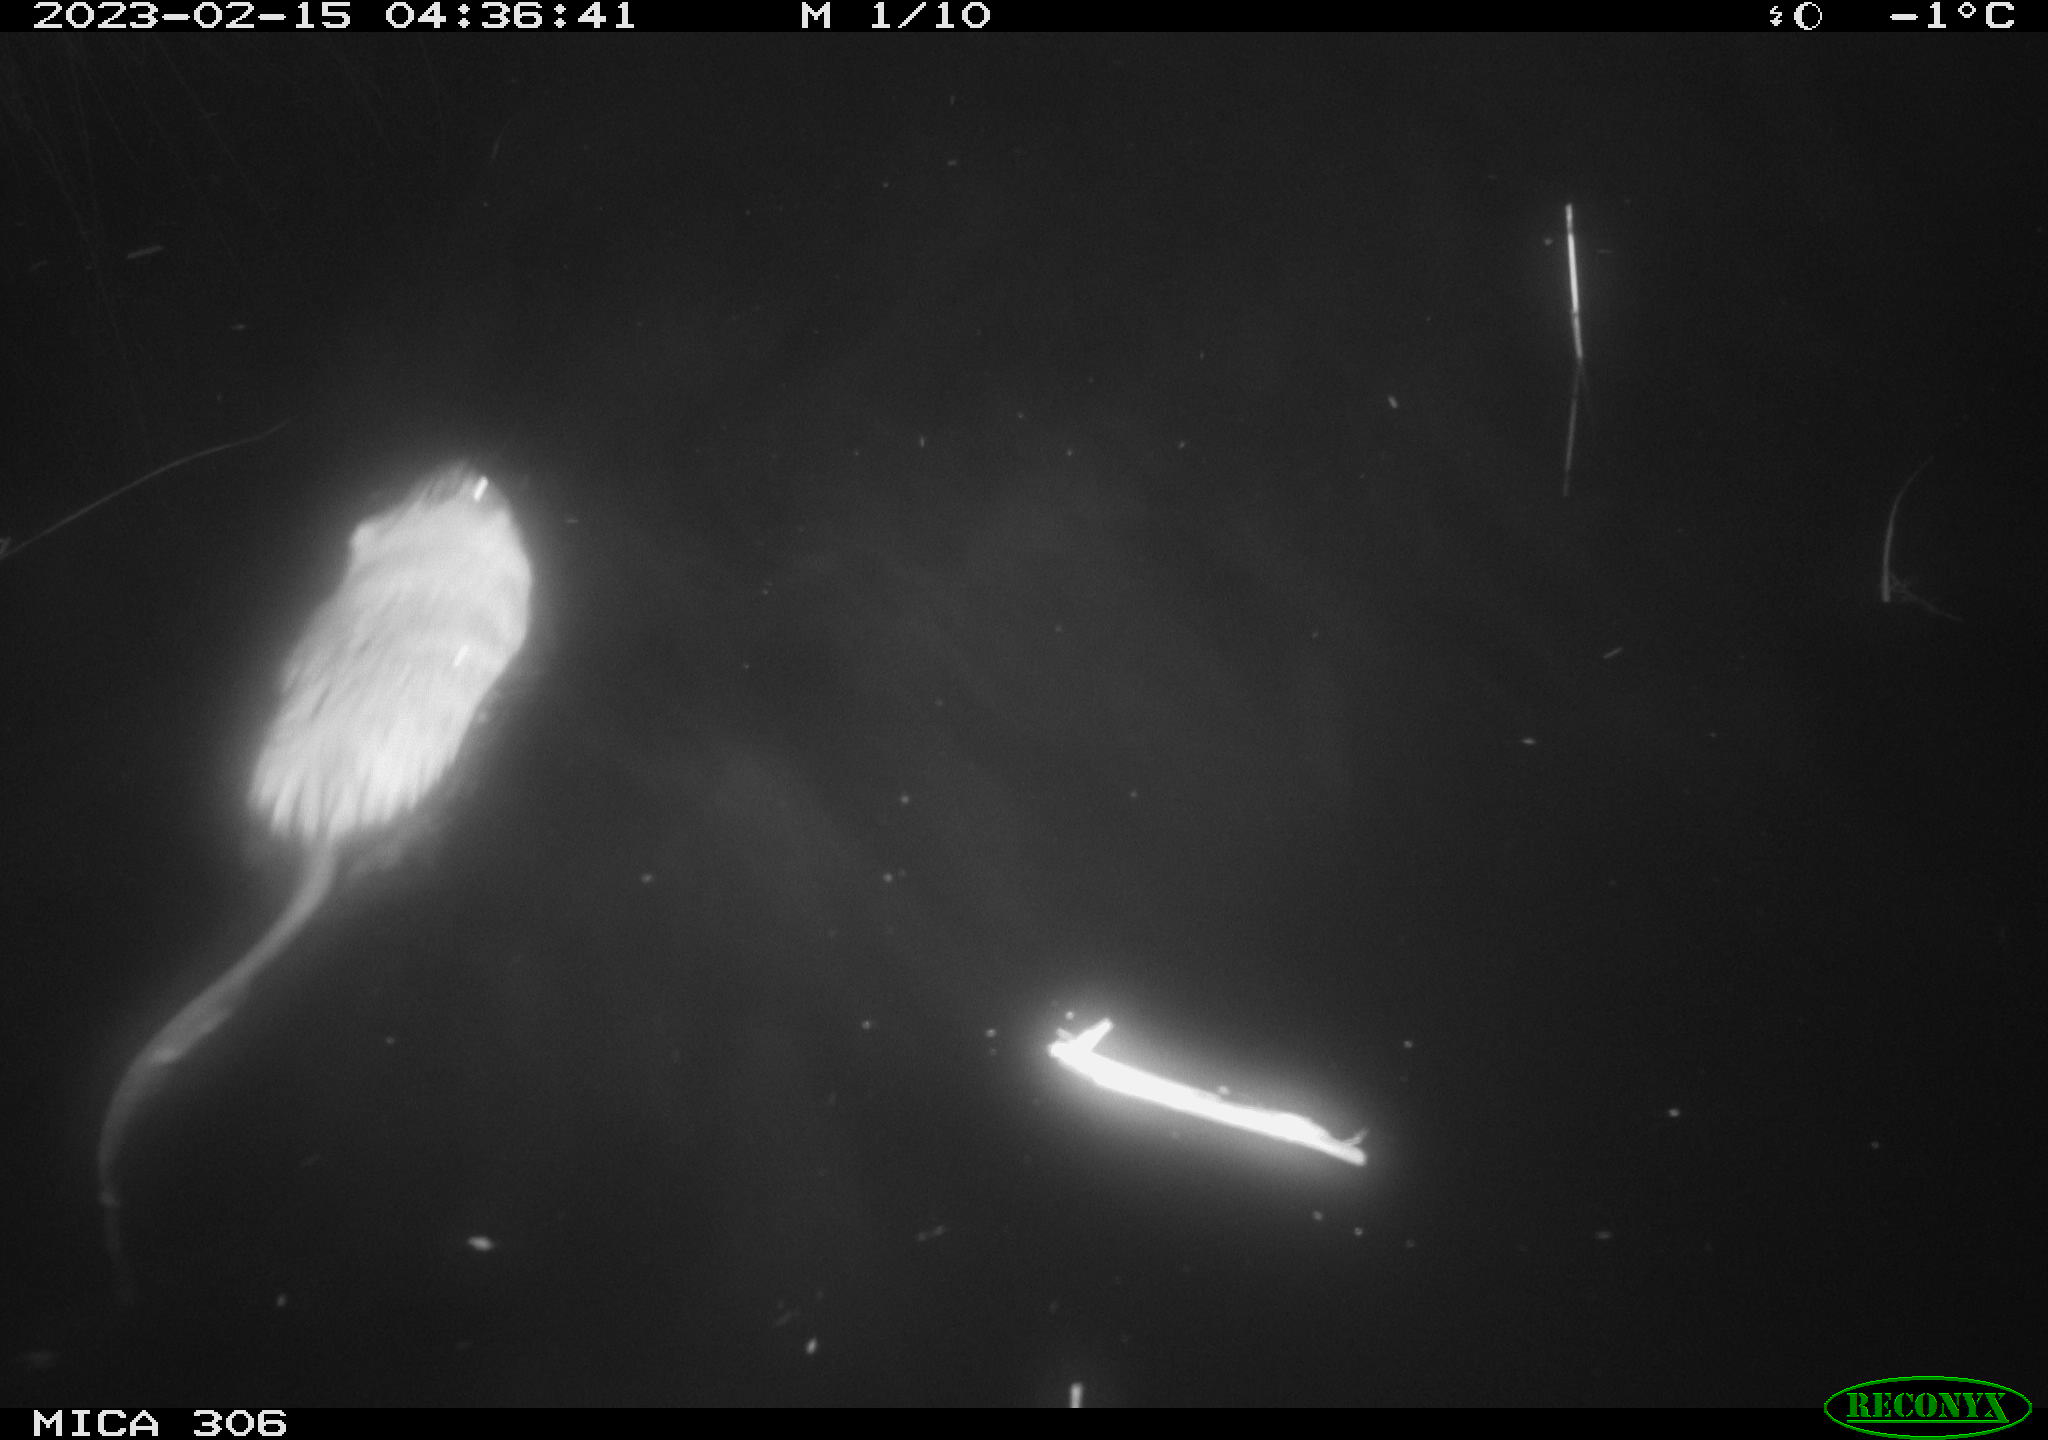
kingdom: Animalia
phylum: Chordata
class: Mammalia
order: Rodentia
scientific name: Rodentia
